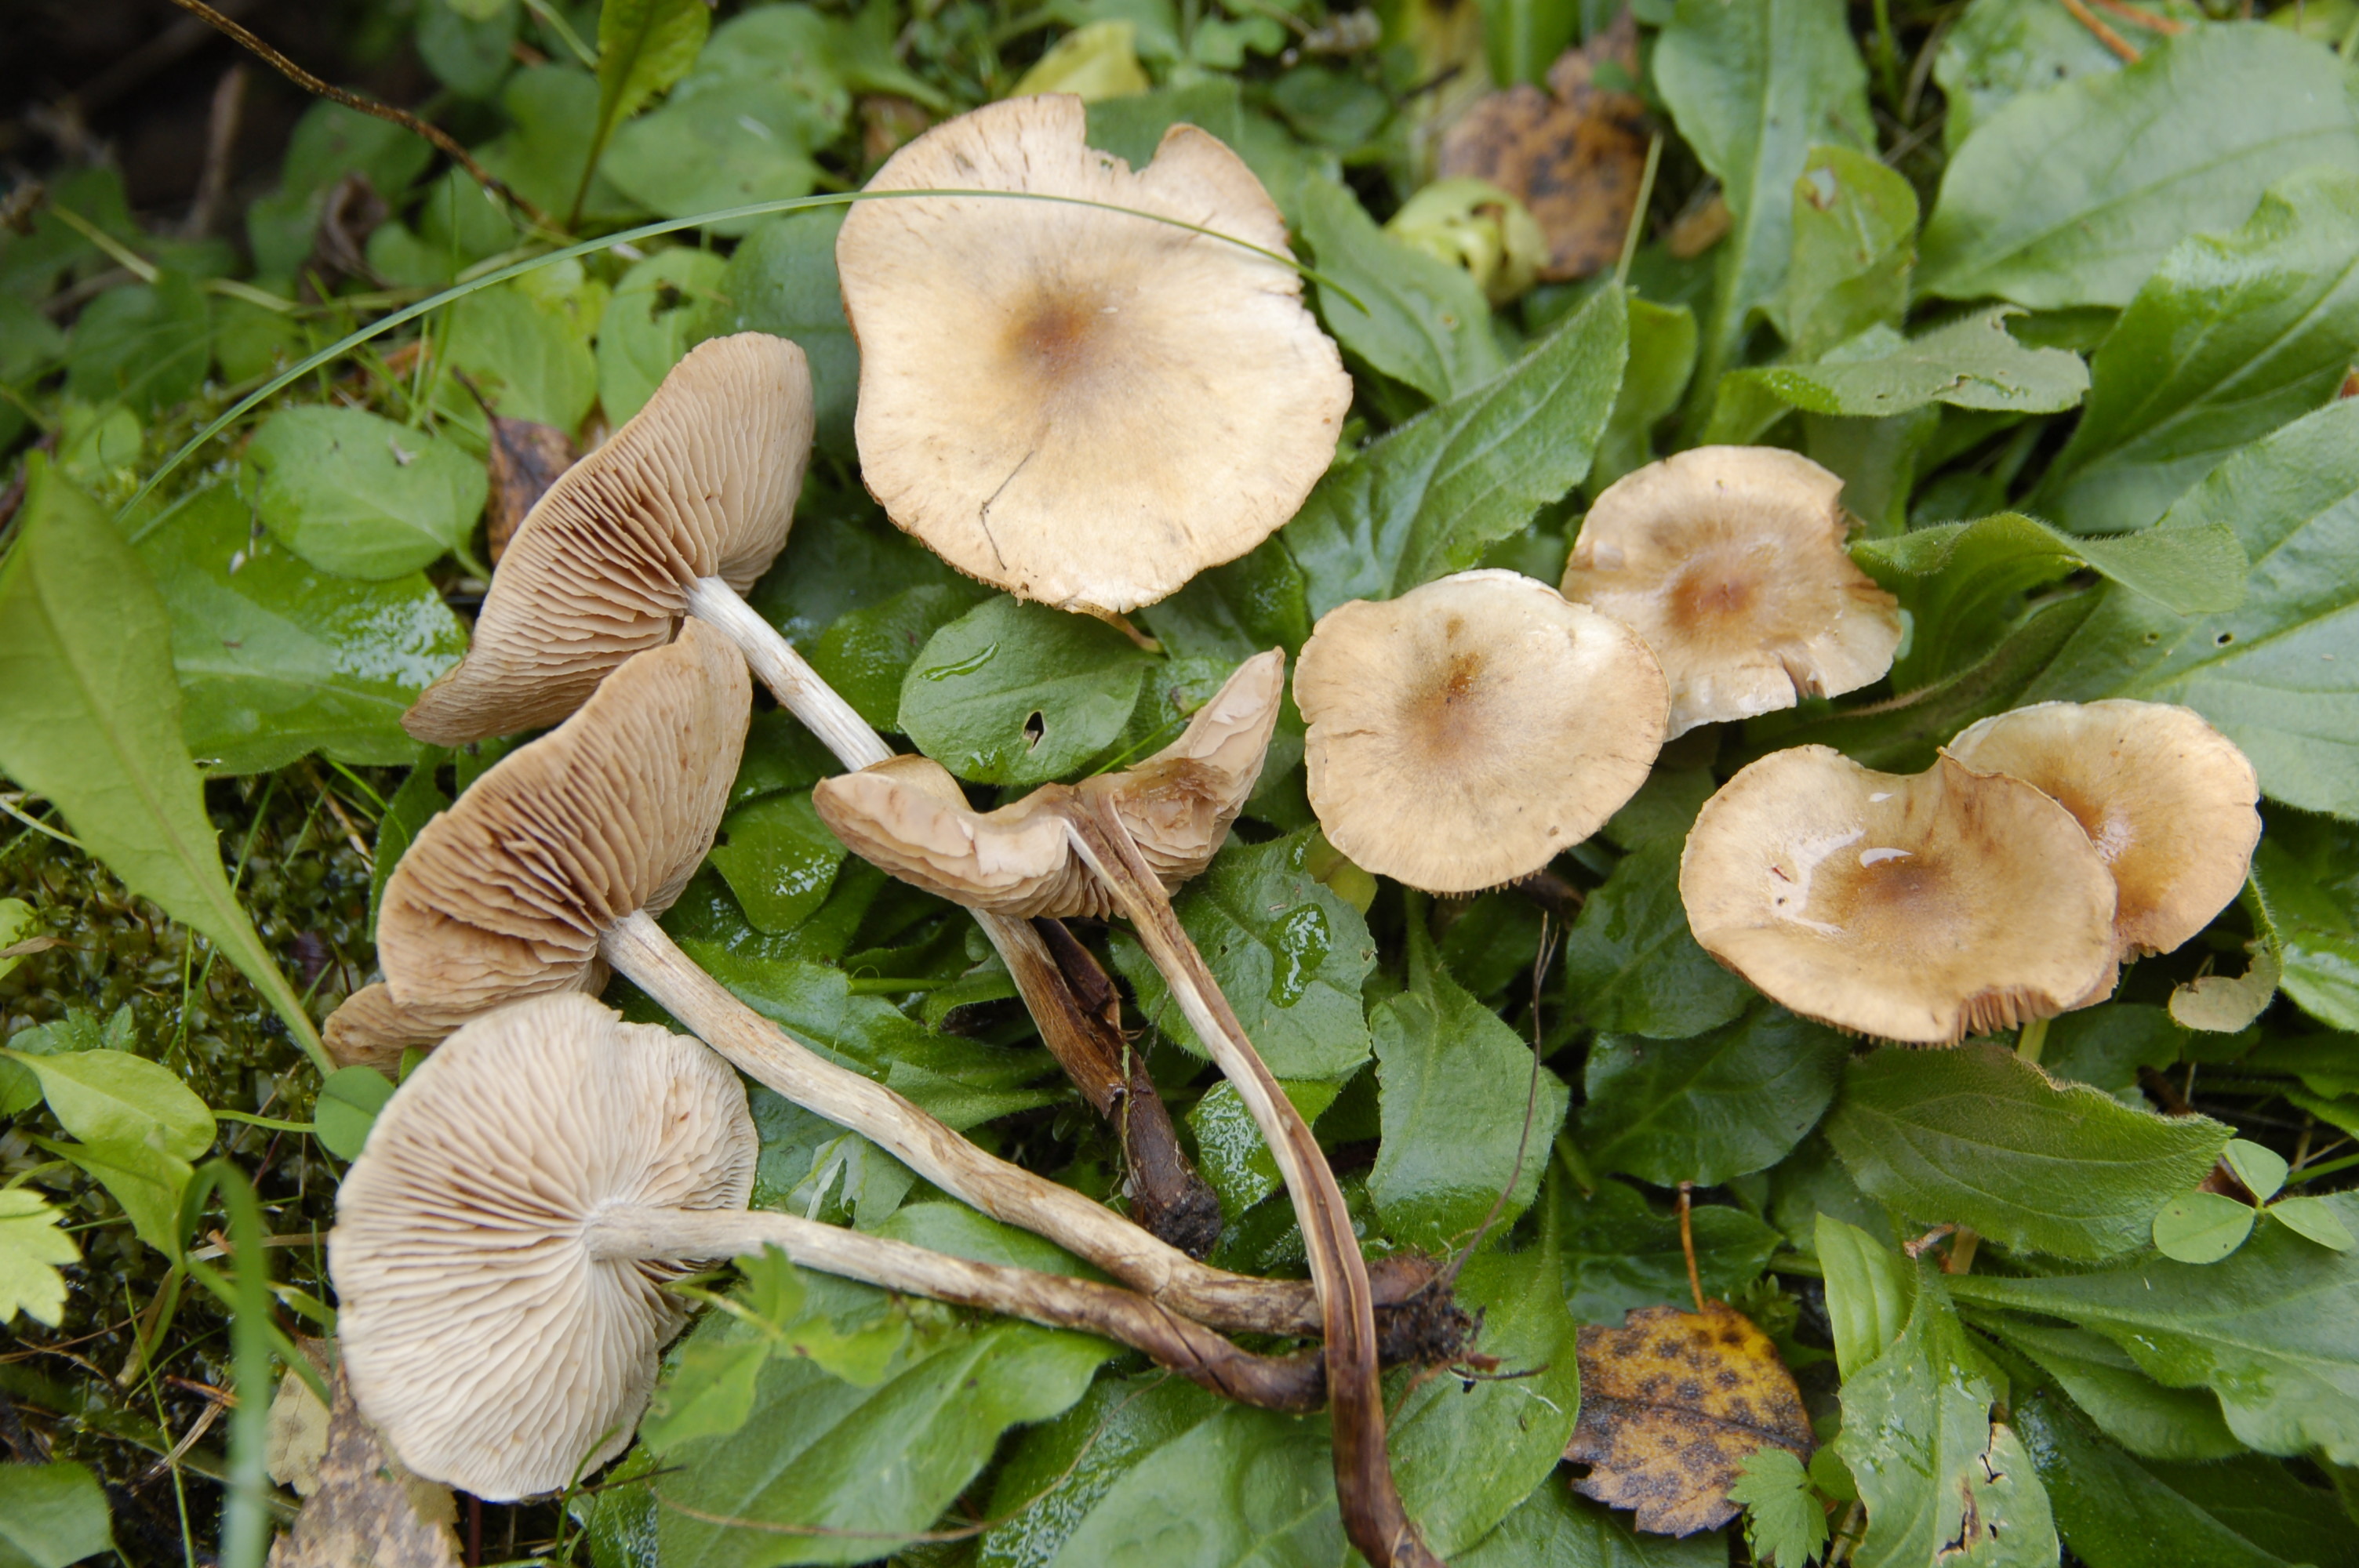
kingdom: Fungi
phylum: Basidiomycota
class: Agaricomycetes
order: Agaricales
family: Hymenogastraceae
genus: Hebeloma
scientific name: Hebeloma
